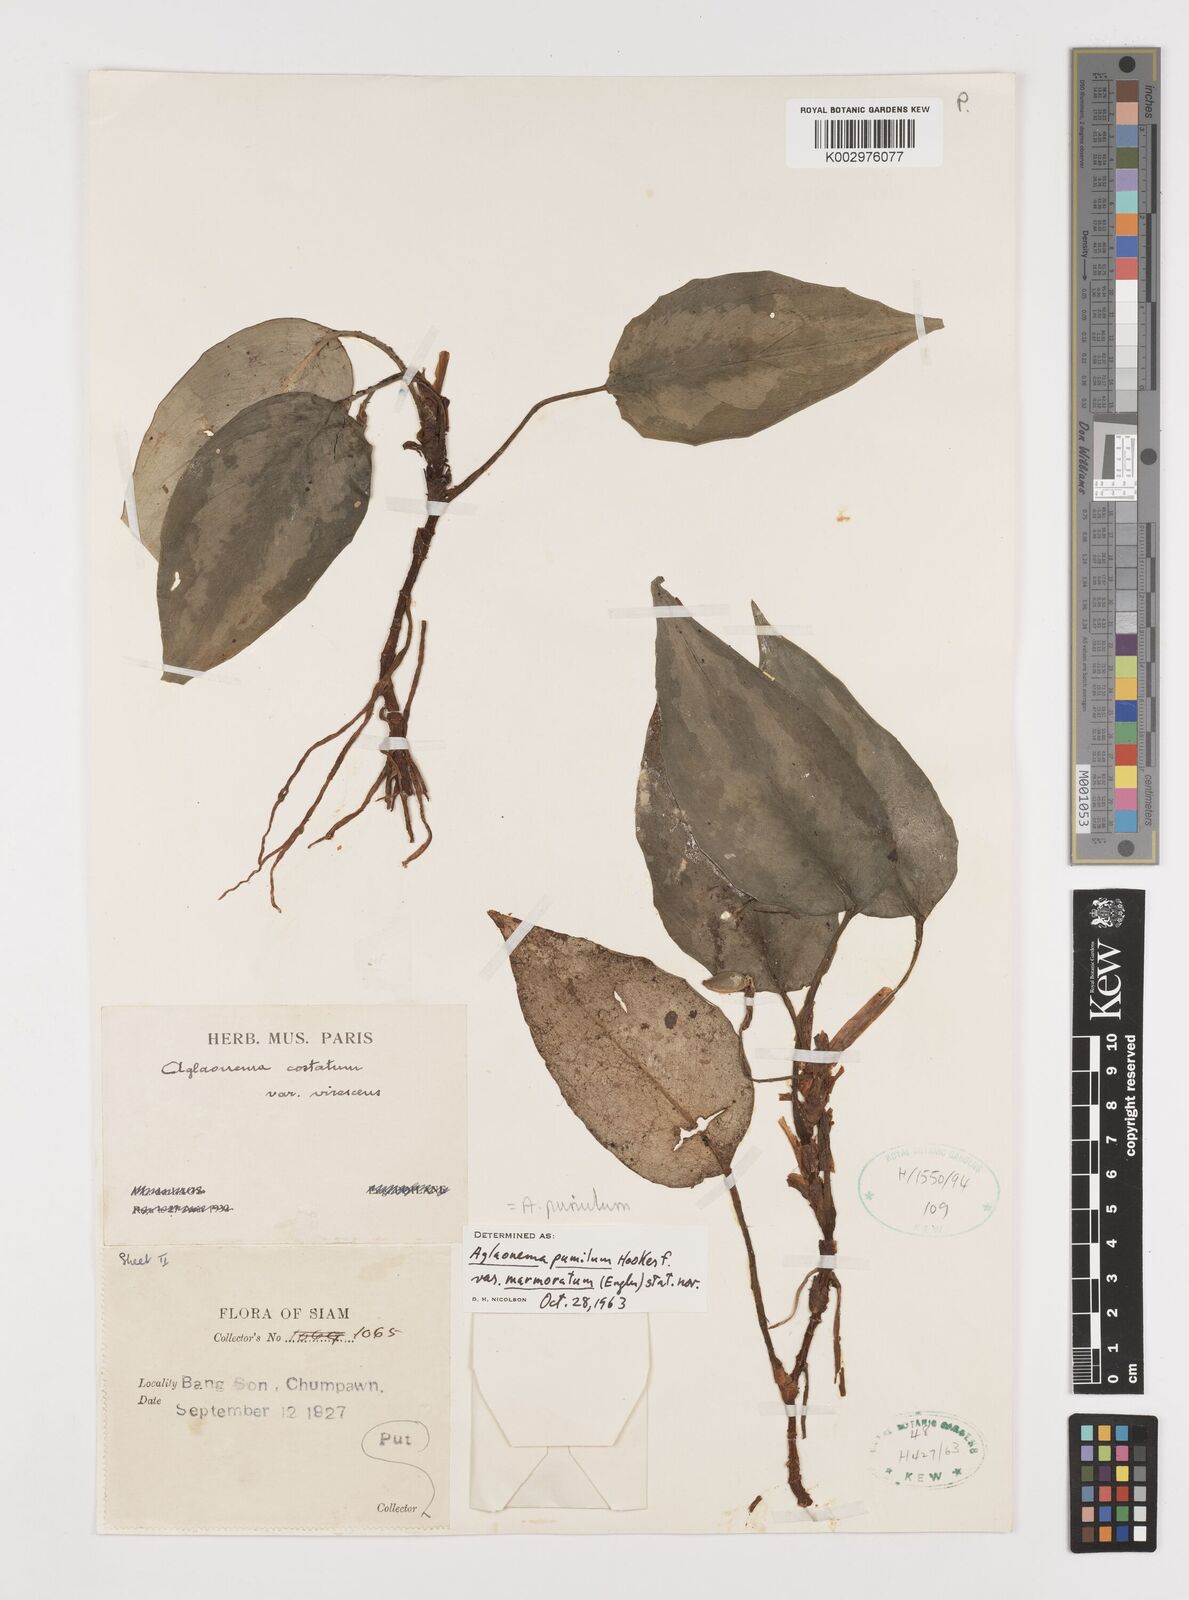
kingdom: Plantae
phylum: Tracheophyta
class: Liliopsida
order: Alismatales
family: Araceae
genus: Aglaonema
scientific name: Aglaonema pumilum
